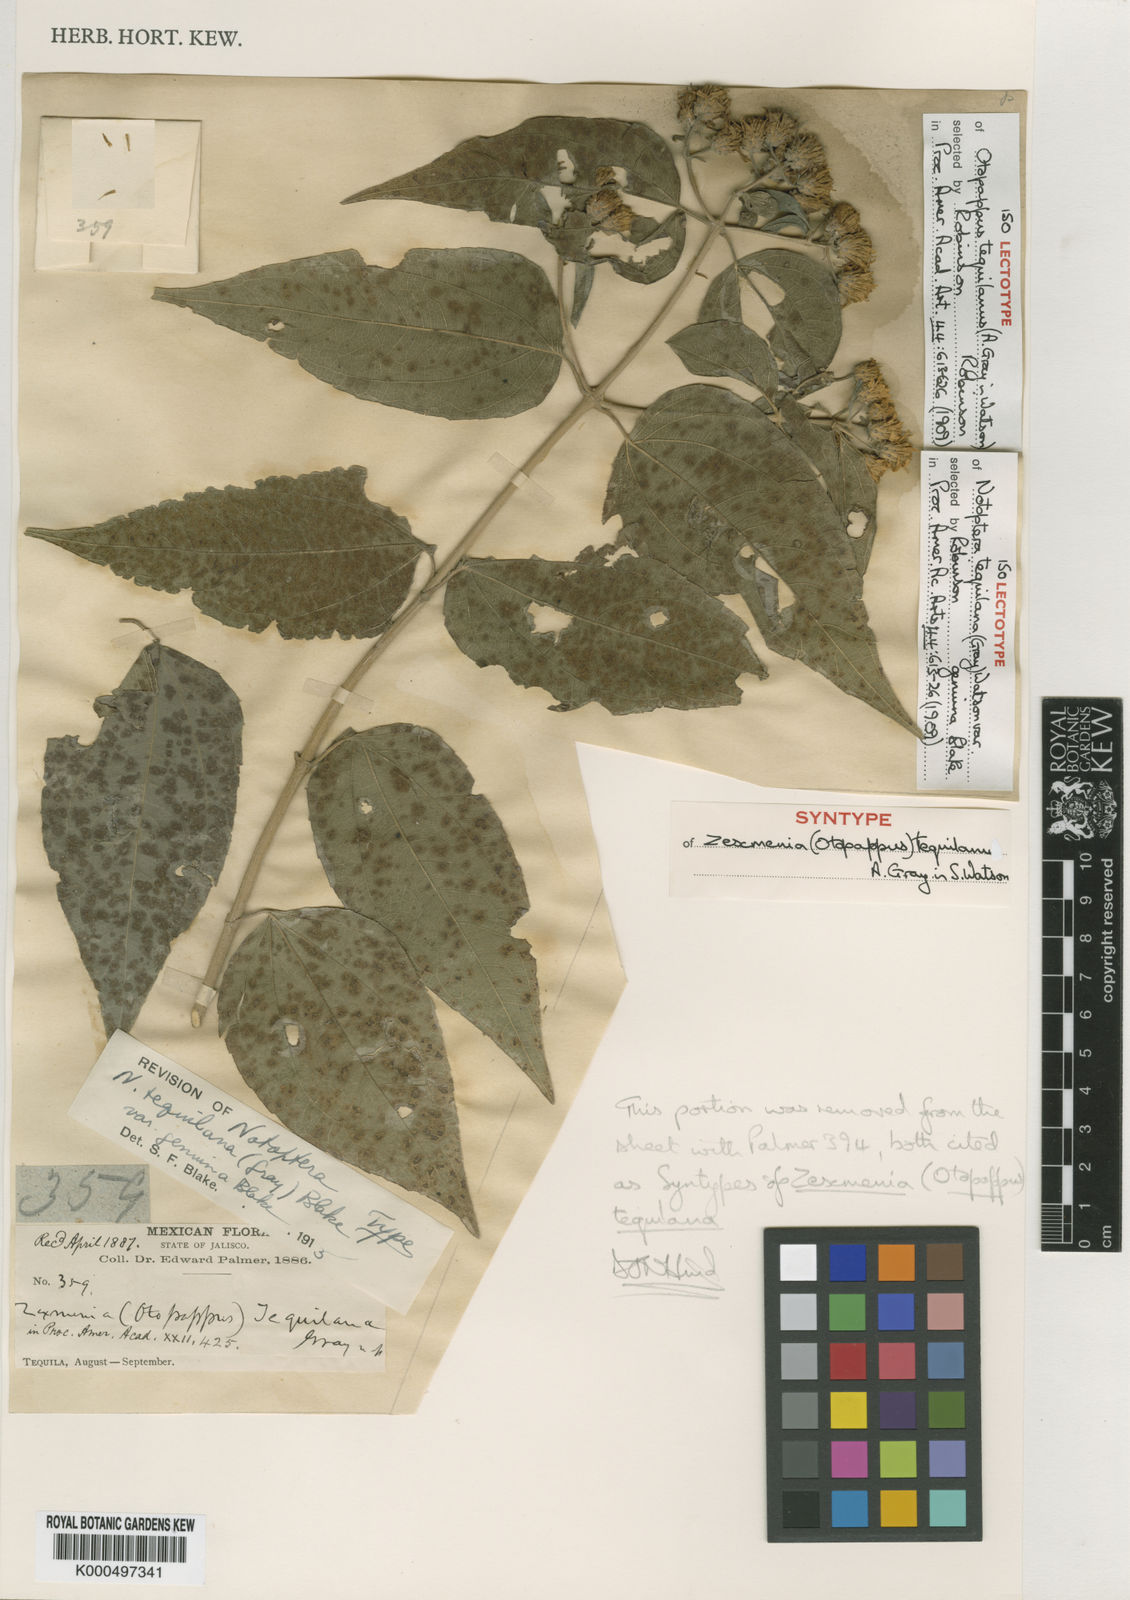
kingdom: Plantae
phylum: Tracheophyta
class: Magnoliopsida
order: Asterales
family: Asteraceae
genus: Otopappus
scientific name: Otopappus tequilanus
